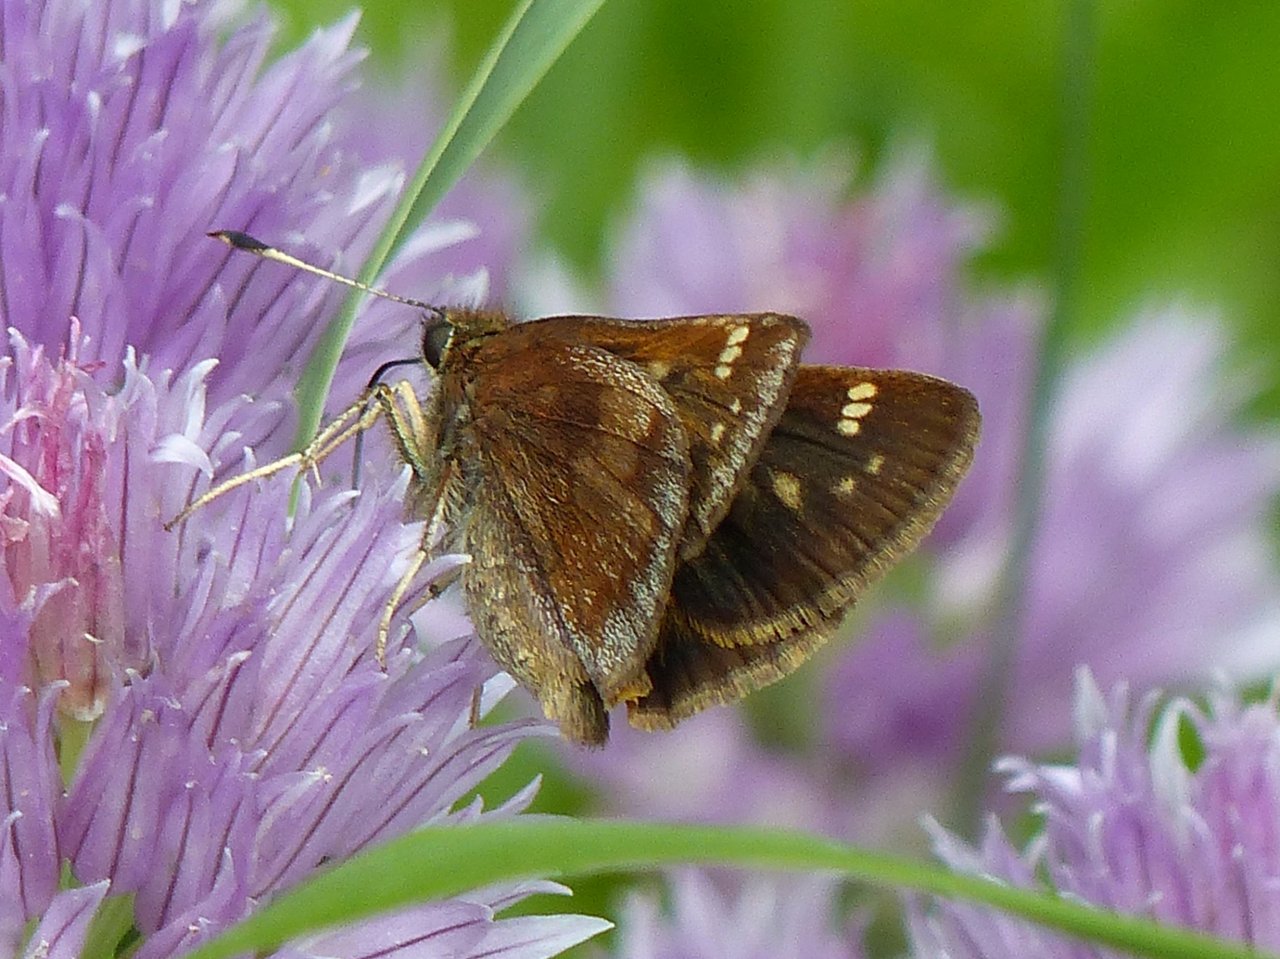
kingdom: Animalia
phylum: Arthropoda
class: Insecta
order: Lepidoptera
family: Hesperiidae
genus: Lon
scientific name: Lon hobomok
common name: Hobomok Skipper
